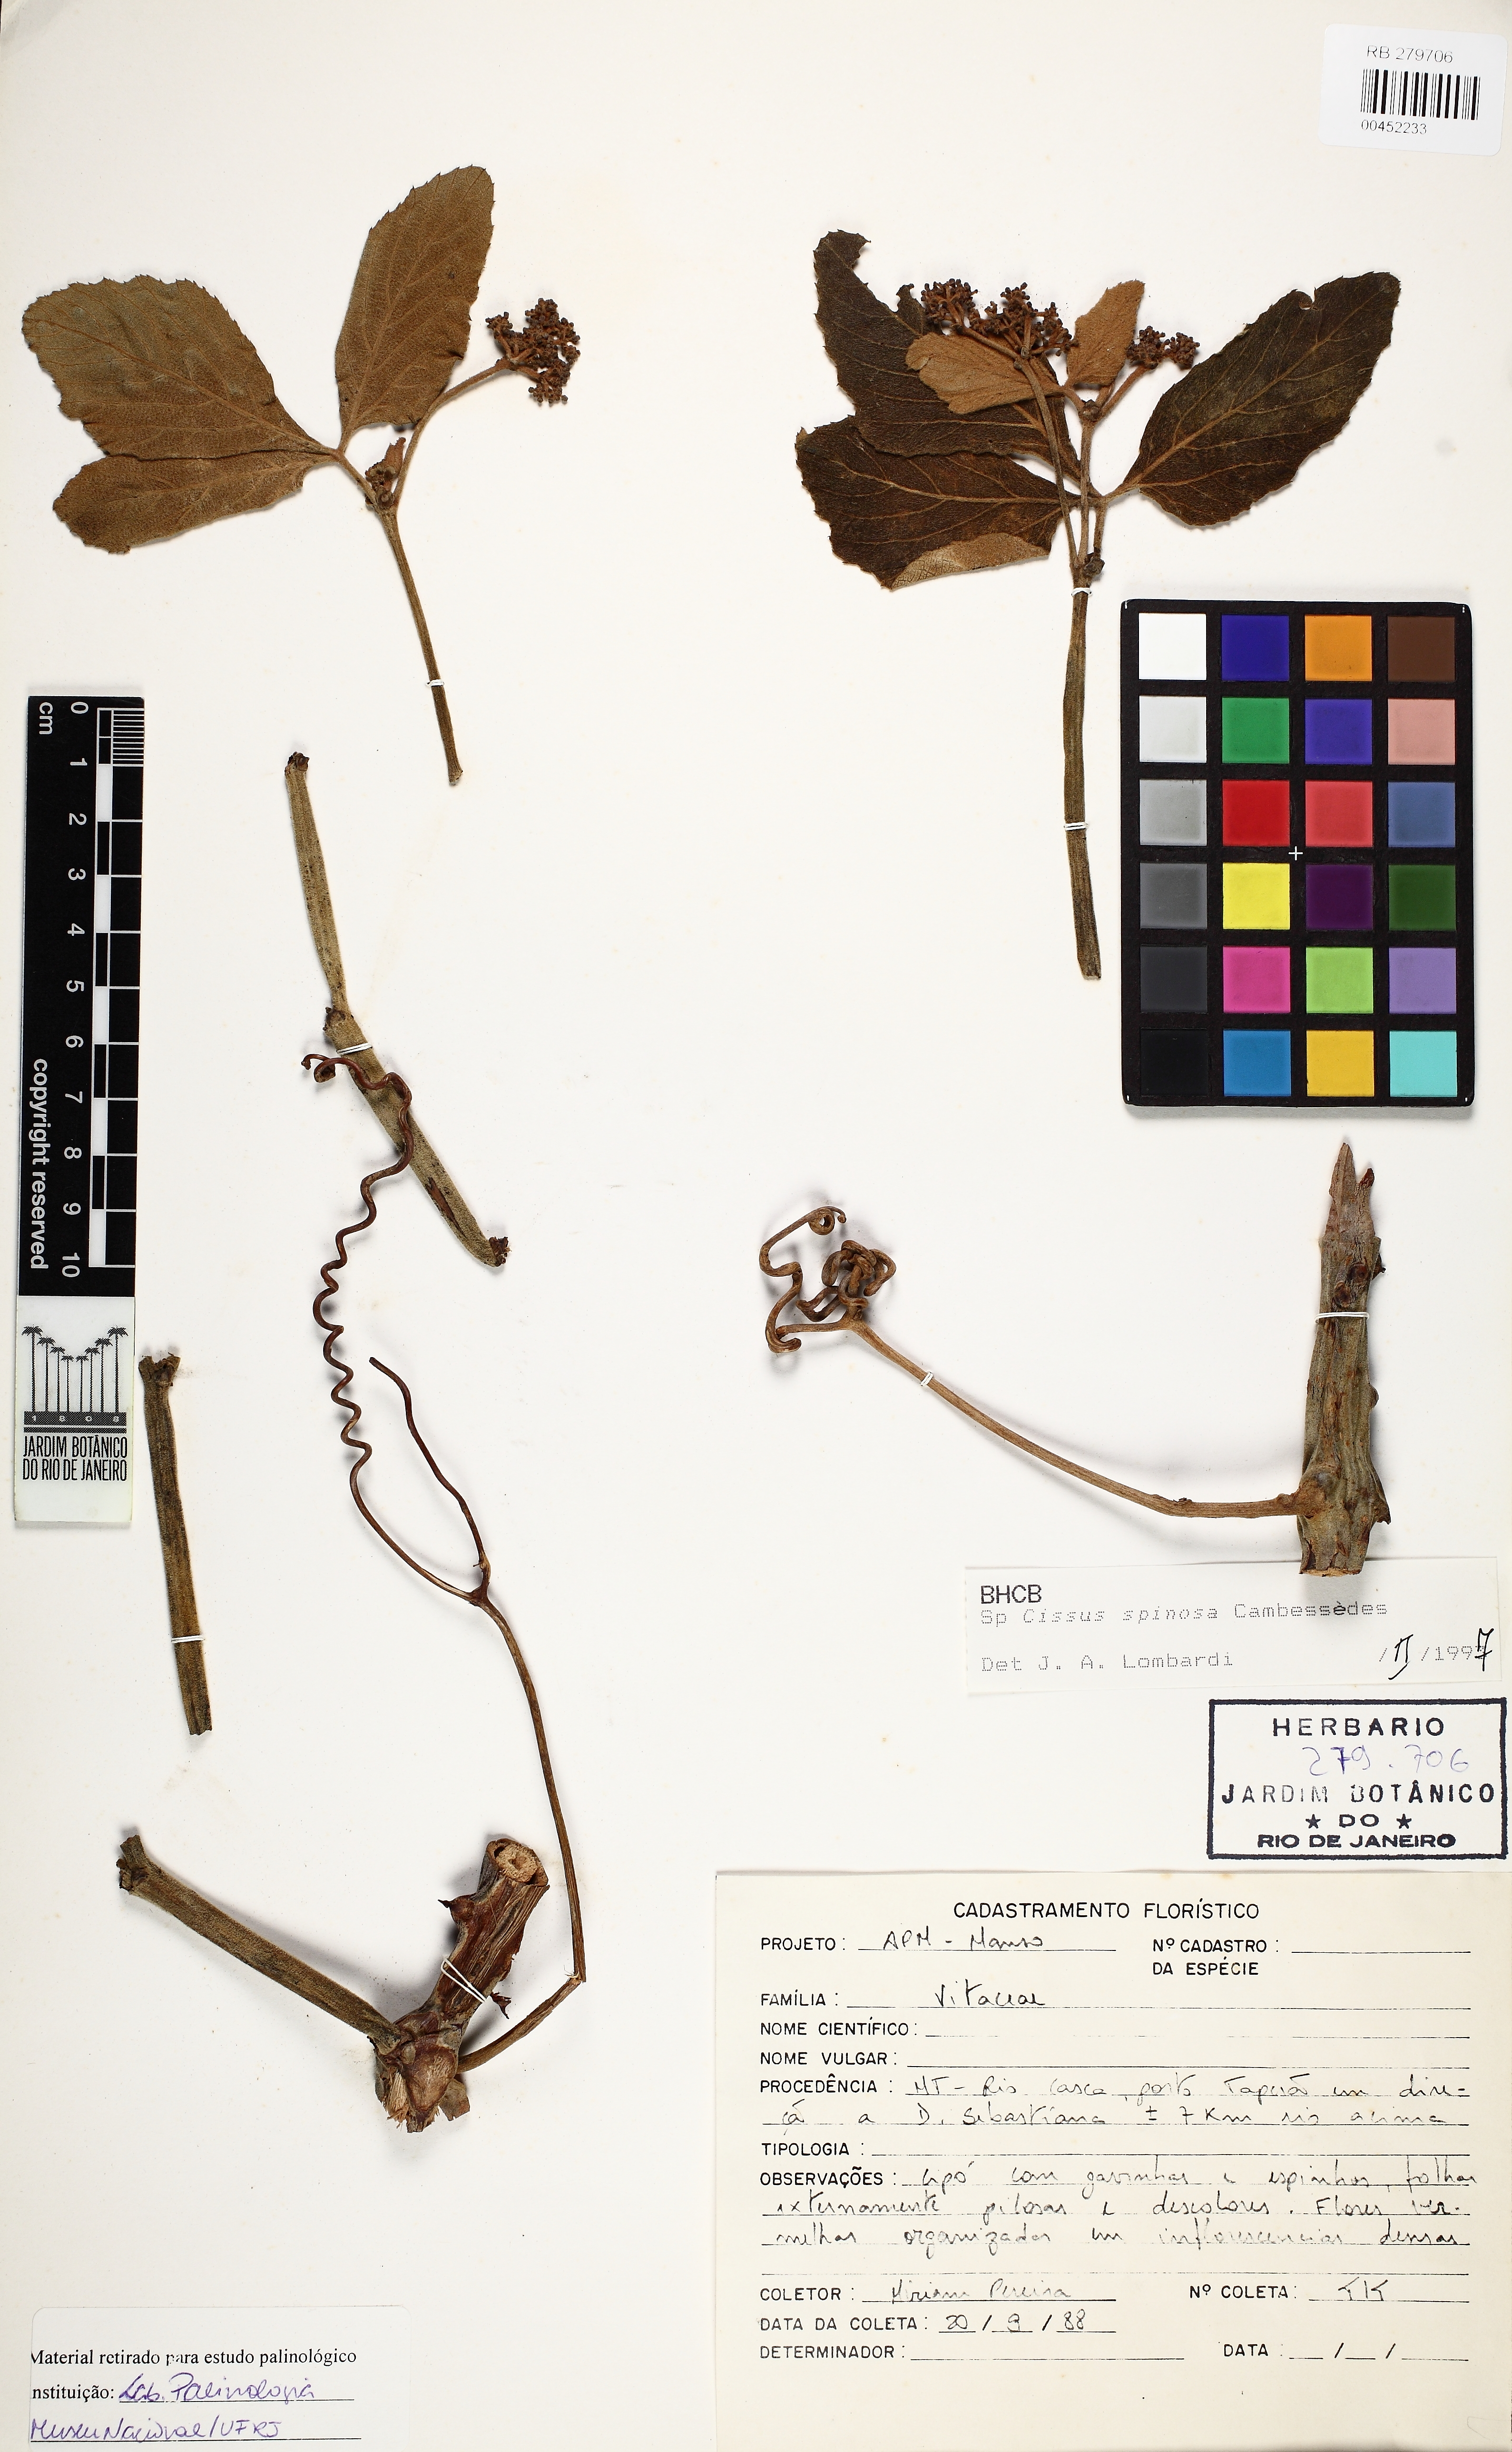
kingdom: Plantae
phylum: Tracheophyta
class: Magnoliopsida
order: Vitales
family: Vitaceae
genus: Cissus
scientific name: Cissus spinosa
